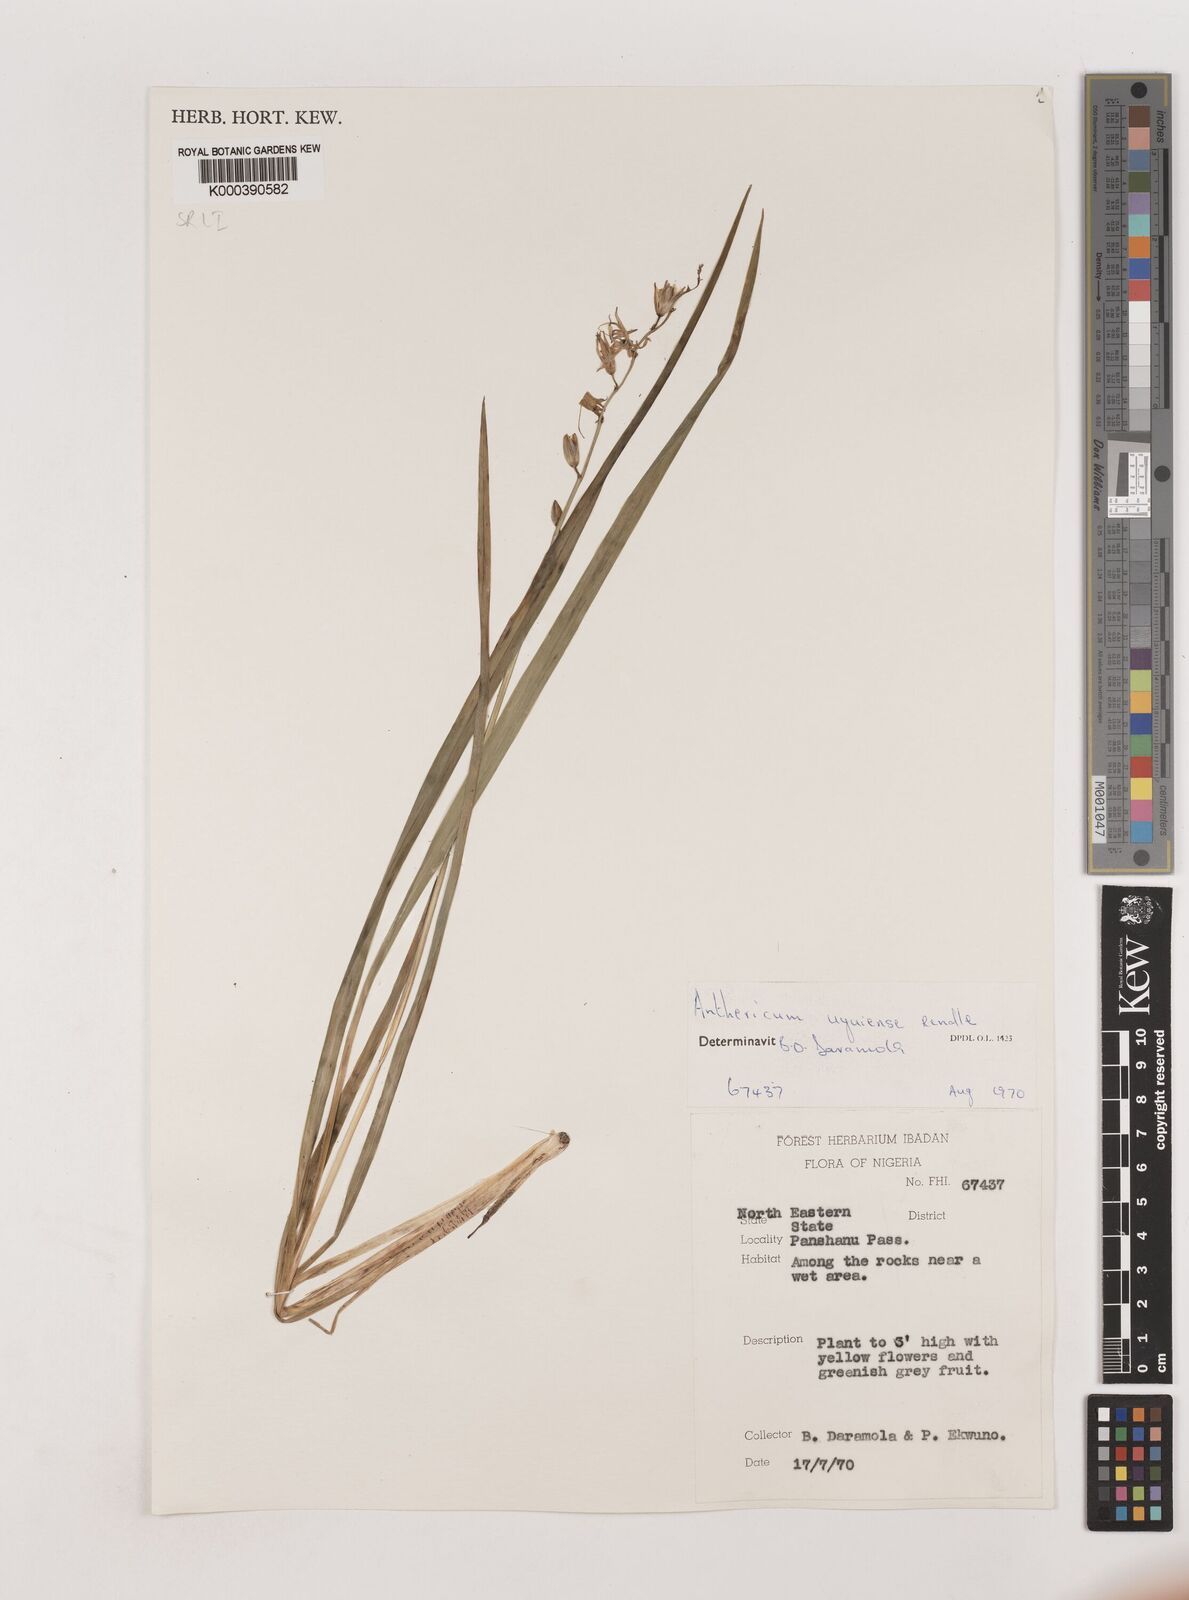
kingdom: Plantae
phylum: Tracheophyta
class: Liliopsida
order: Asparagales
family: Asparagaceae
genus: Chlorophytum
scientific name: Chlorophytum cameronii
